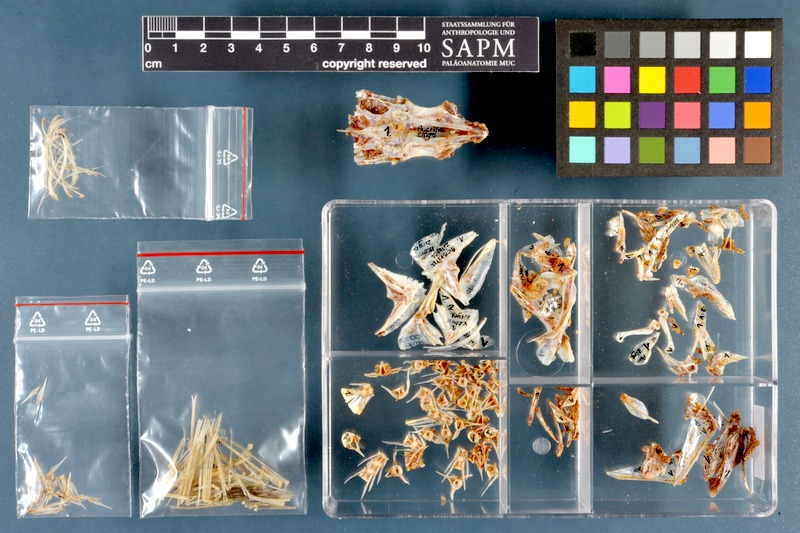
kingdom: Animalia
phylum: Chordata
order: Perciformes
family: Percidae
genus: Zingel
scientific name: Zingel zingel
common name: Zingel
